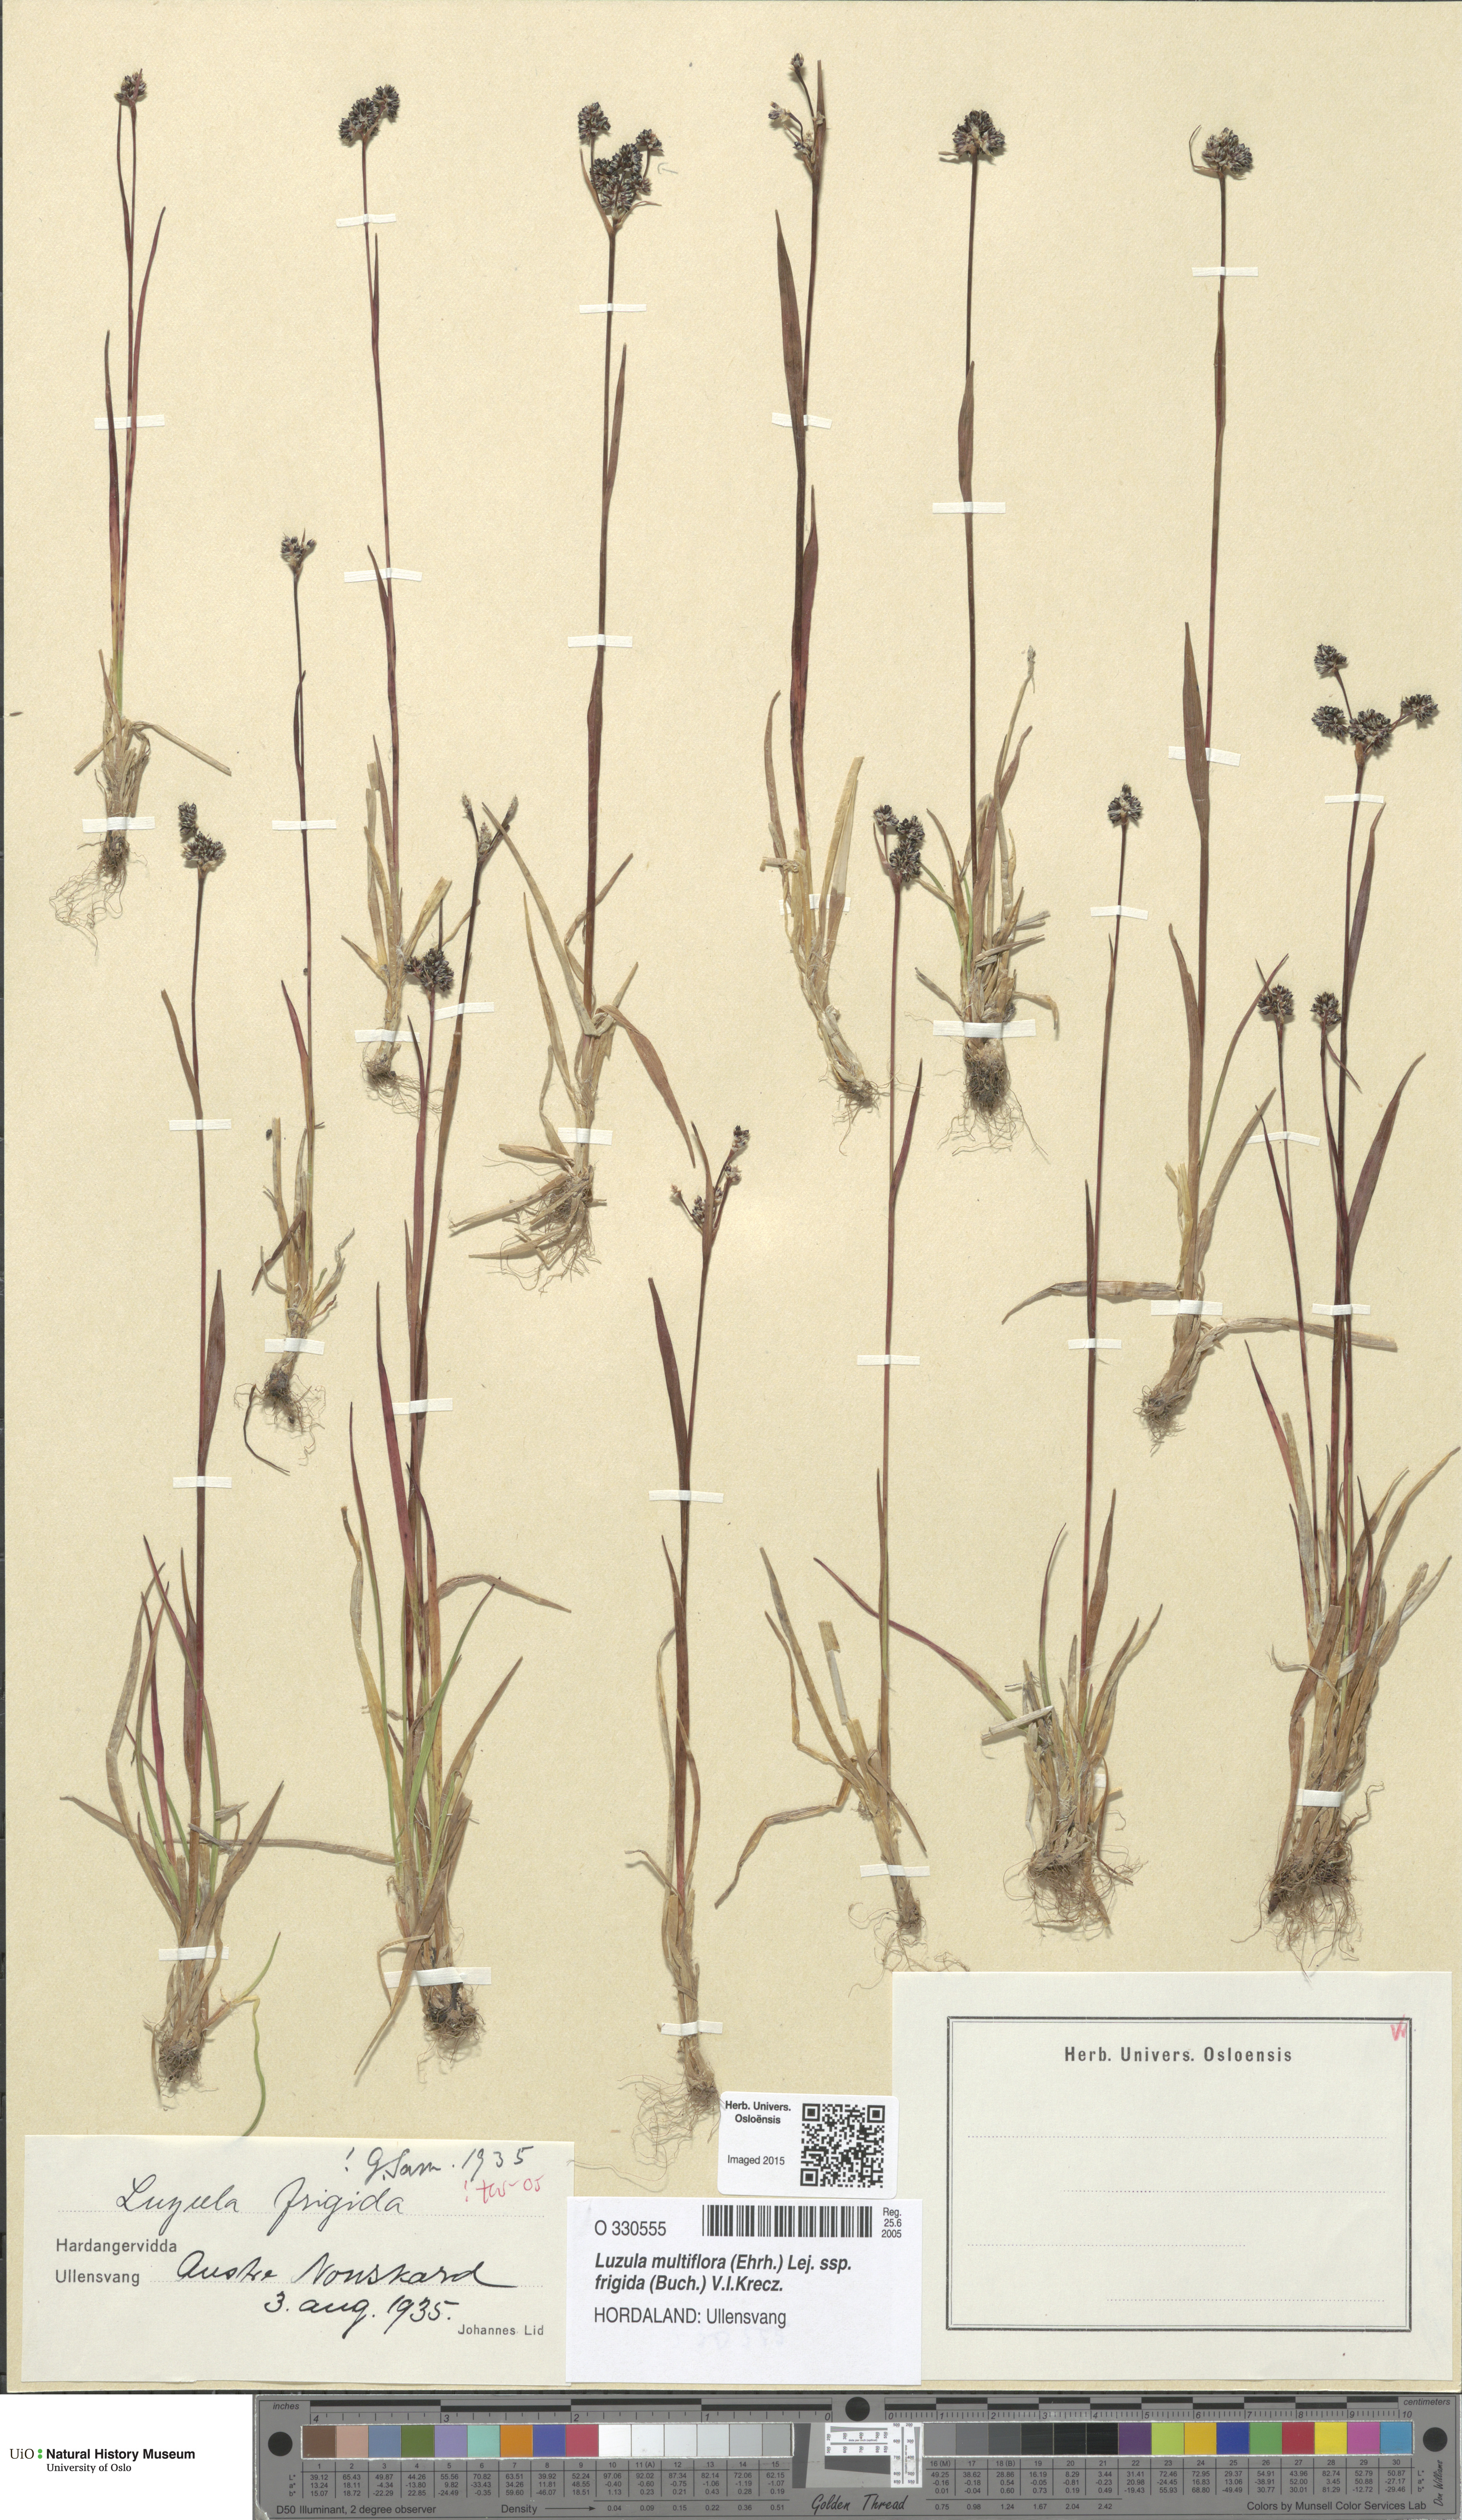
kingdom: Plantae
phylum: Tracheophyta
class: Liliopsida
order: Poales
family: Juncaceae
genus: Luzula
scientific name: Luzula multiflora
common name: Heath wood-rush
